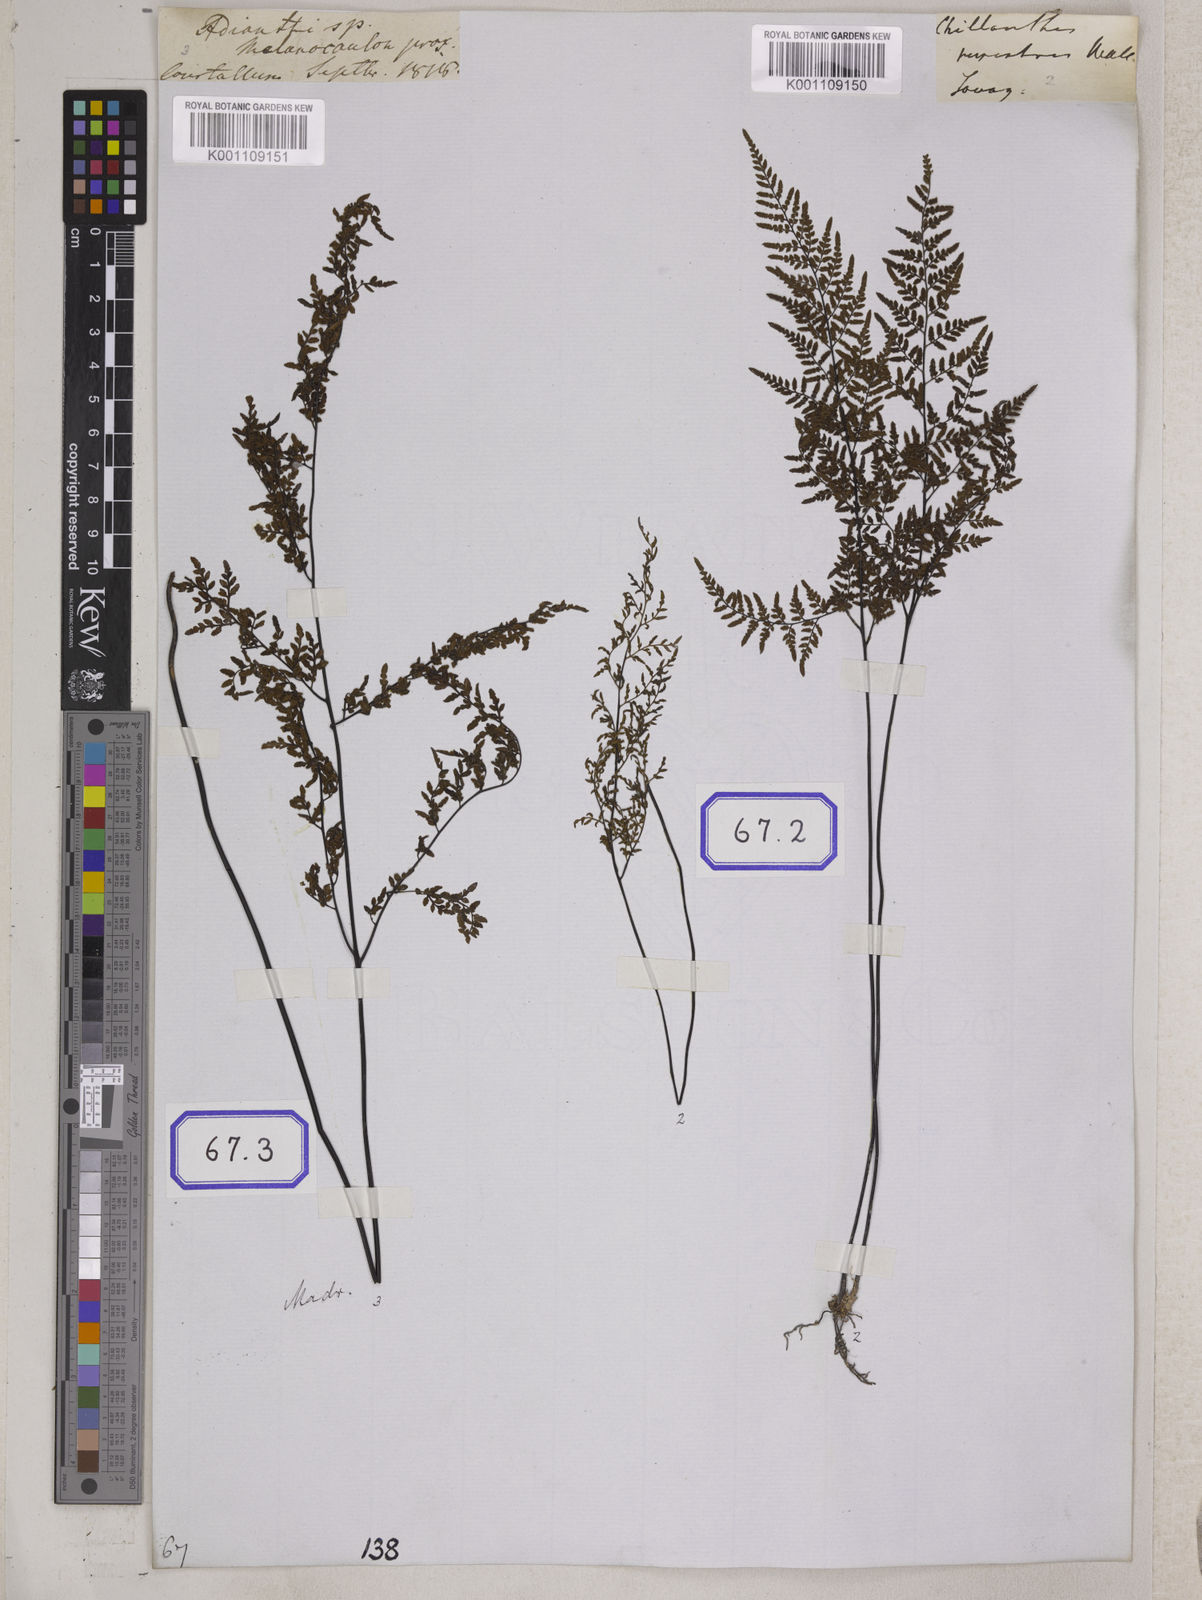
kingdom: Plantae
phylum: Tracheophyta
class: Polypodiopsida
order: Polypodiales
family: Pteridaceae
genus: Cheilanthes
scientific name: Cheilanthes tenuifolia
